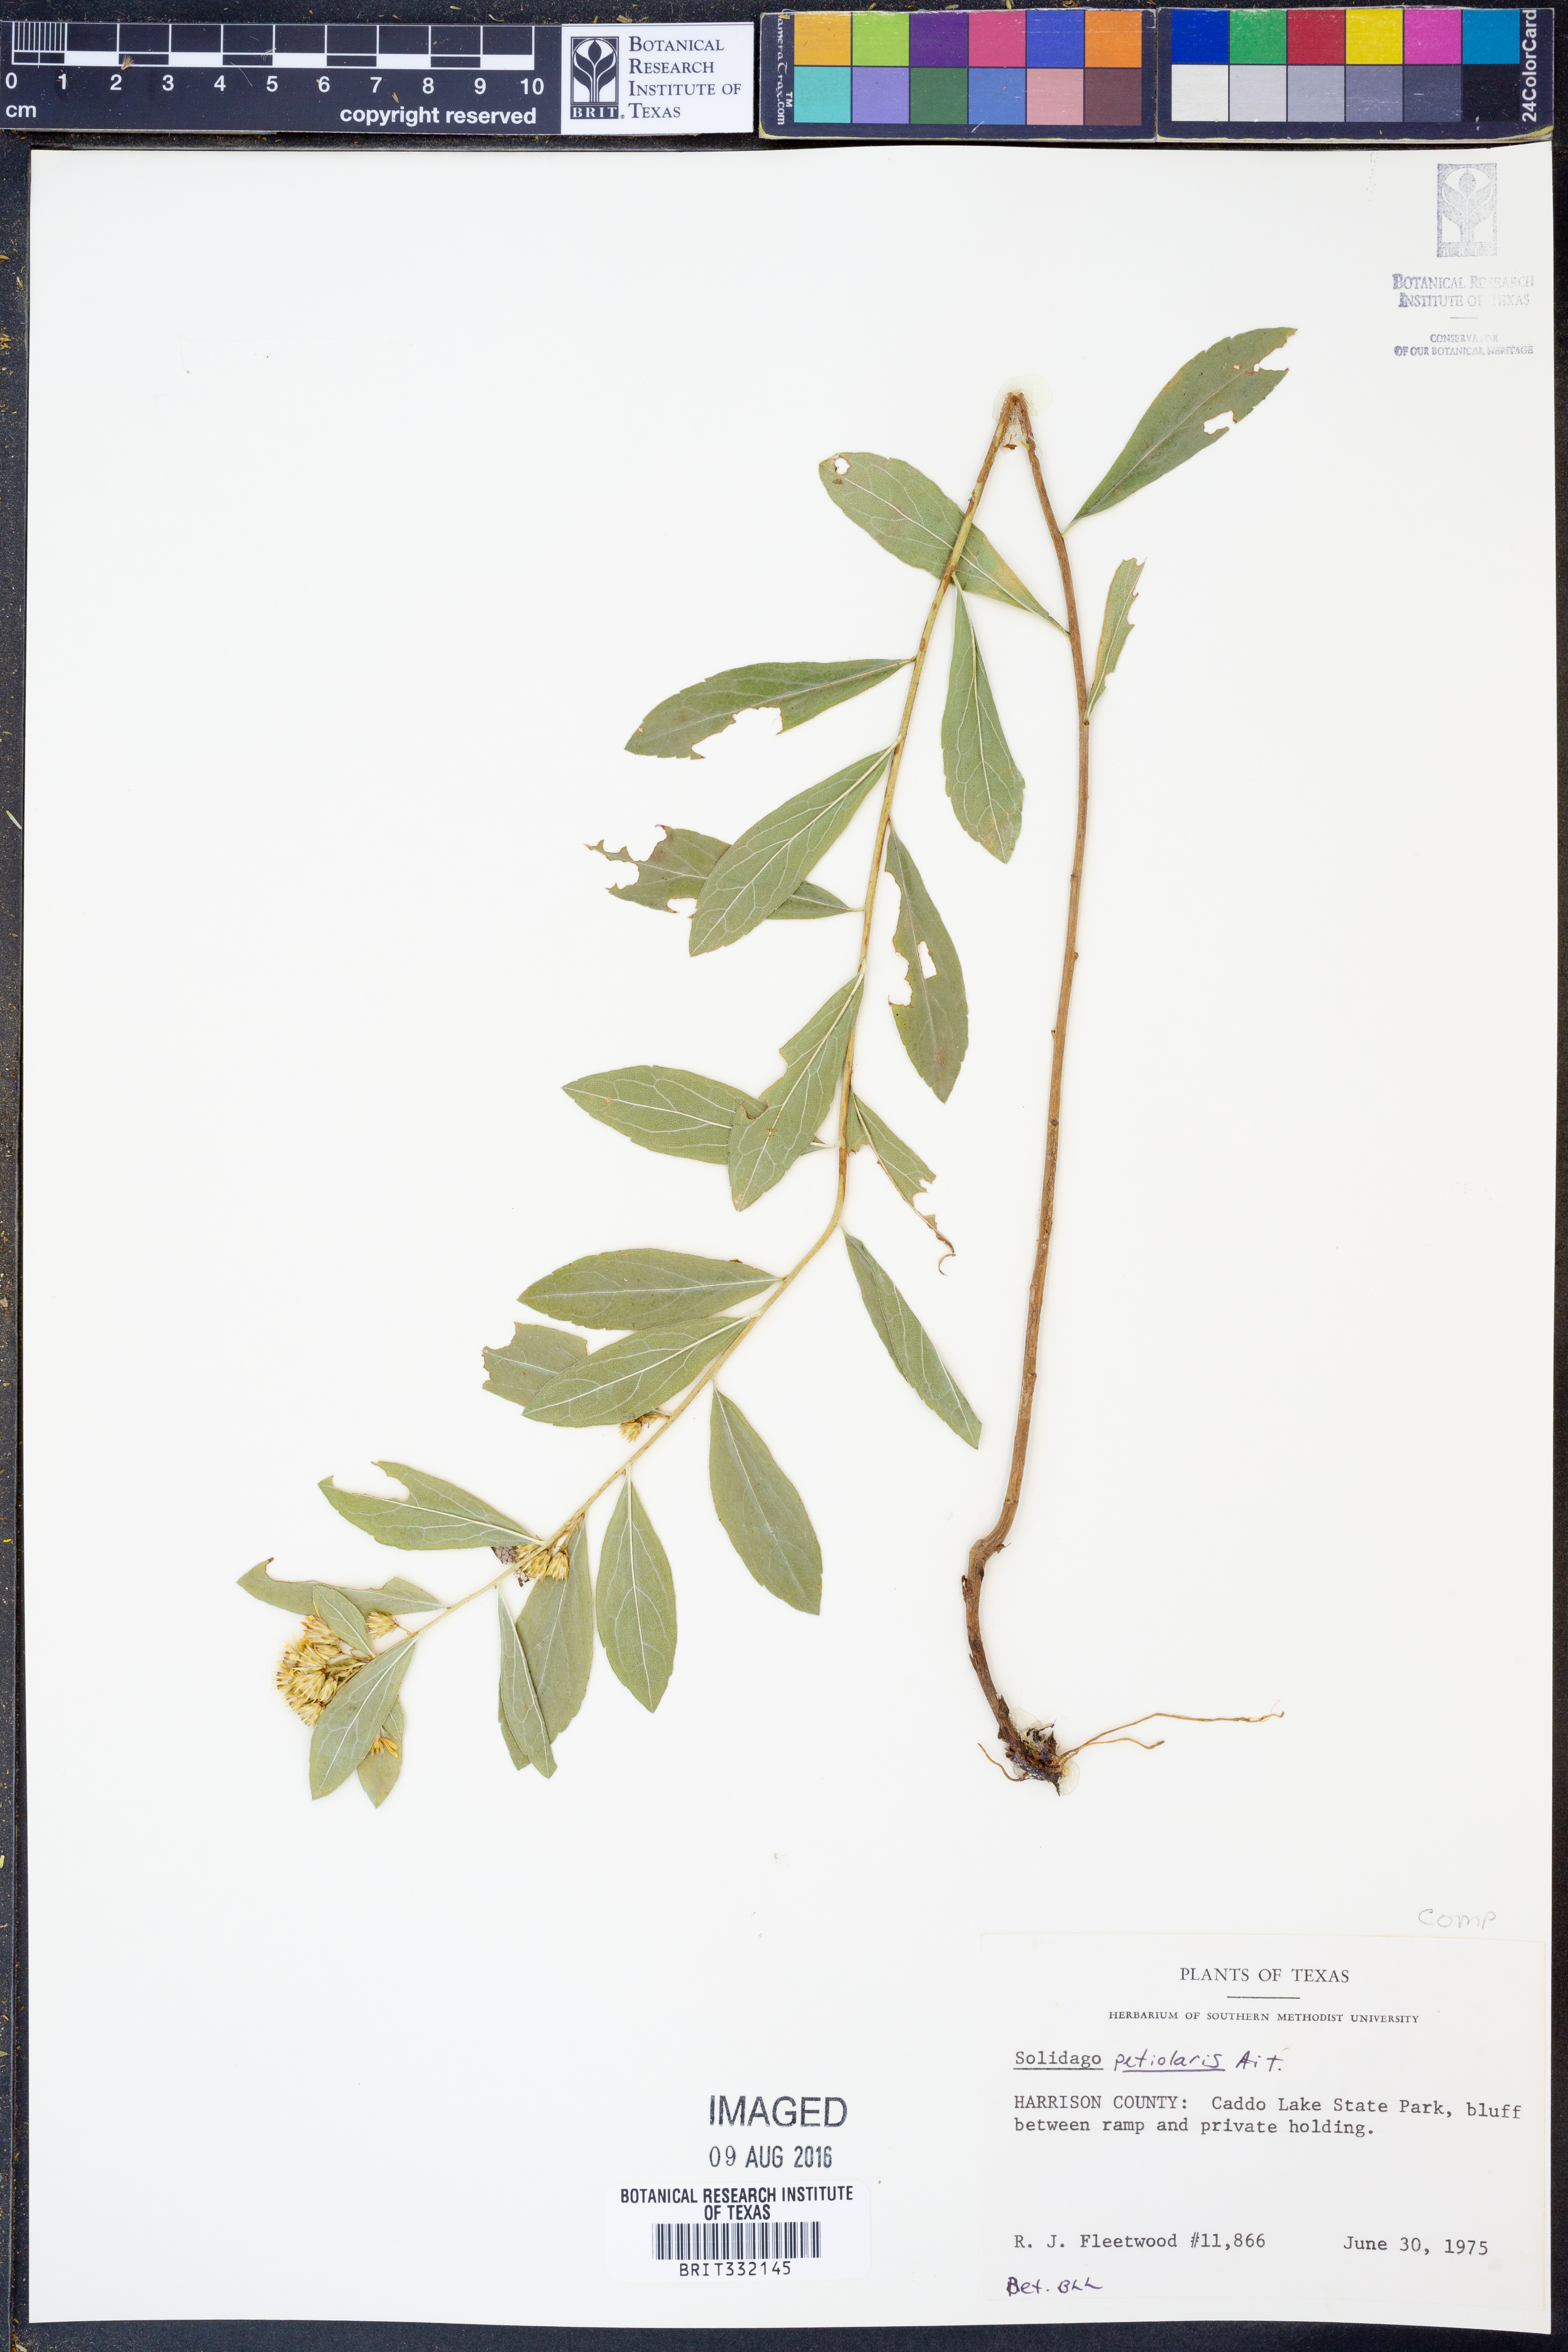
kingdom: Plantae
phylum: Tracheophyta
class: Magnoliopsida
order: Asterales
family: Asteraceae
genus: Solidago
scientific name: Solidago petiolaris
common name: Downy ragged goldenrod
